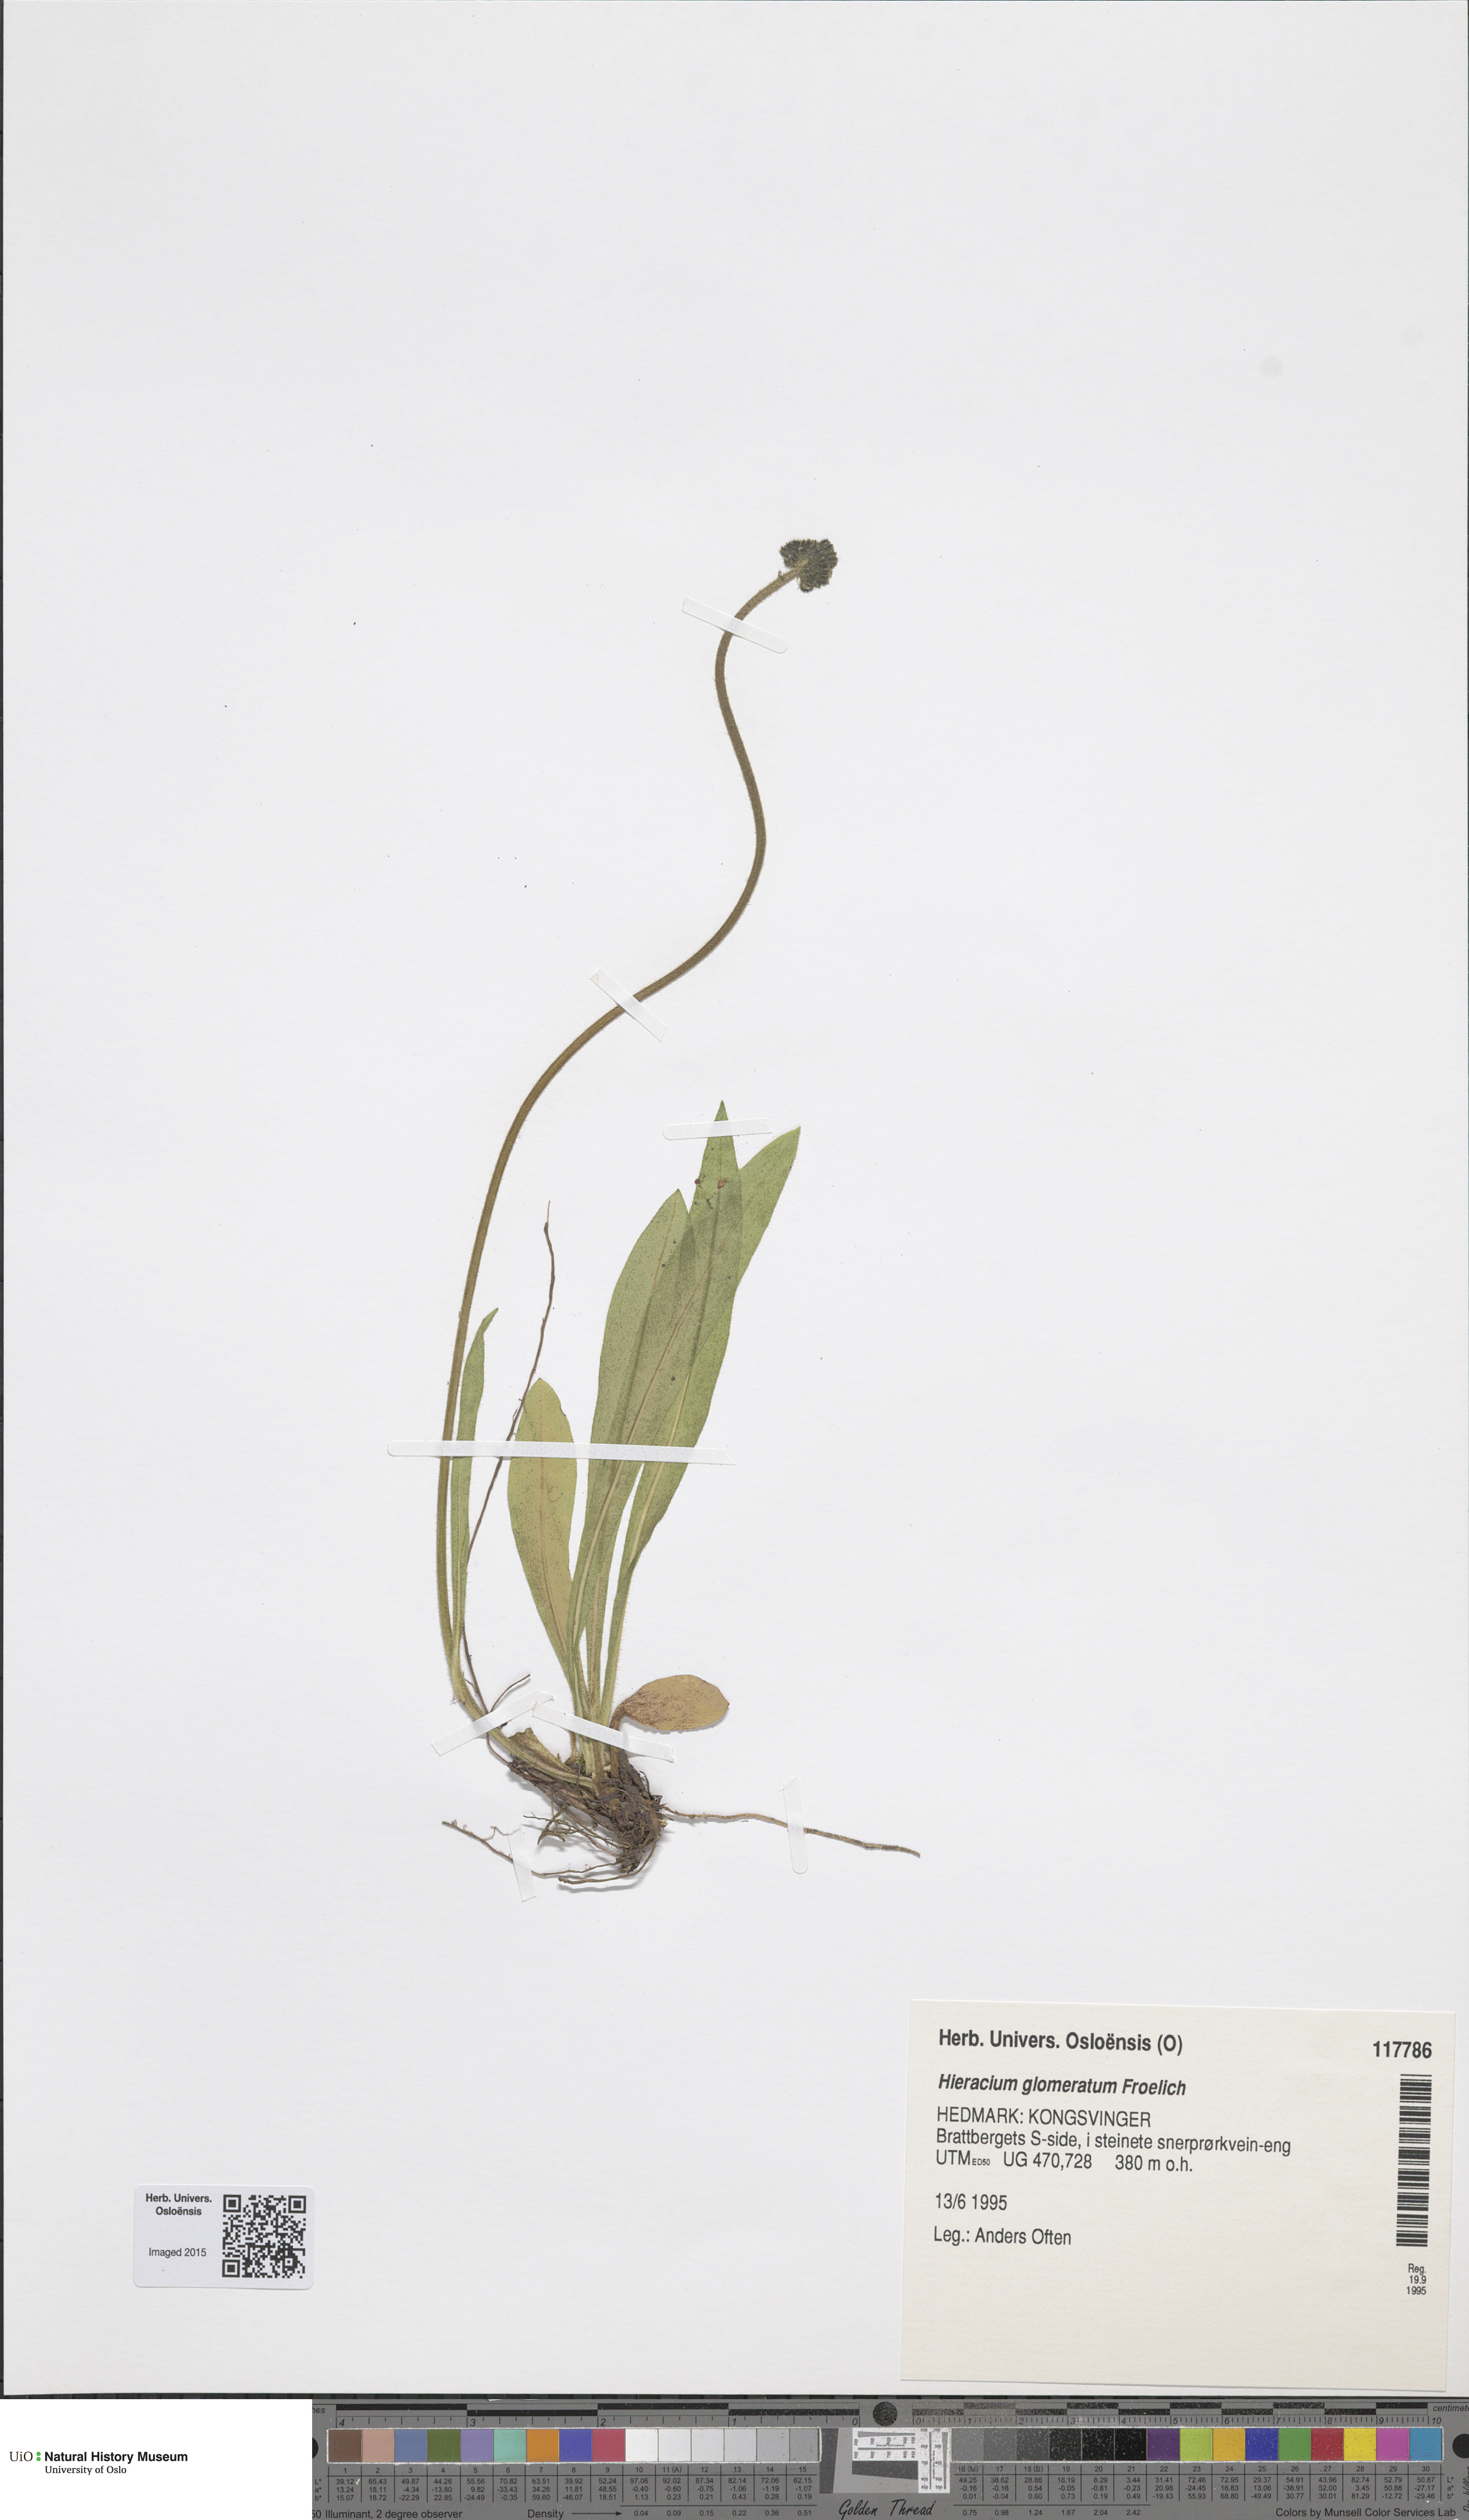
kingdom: Plantae
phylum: Tracheophyta
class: Magnoliopsida
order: Asterales
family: Asteraceae
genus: Pilosella
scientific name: Pilosella glomerata
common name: Queen devil hawkweed
